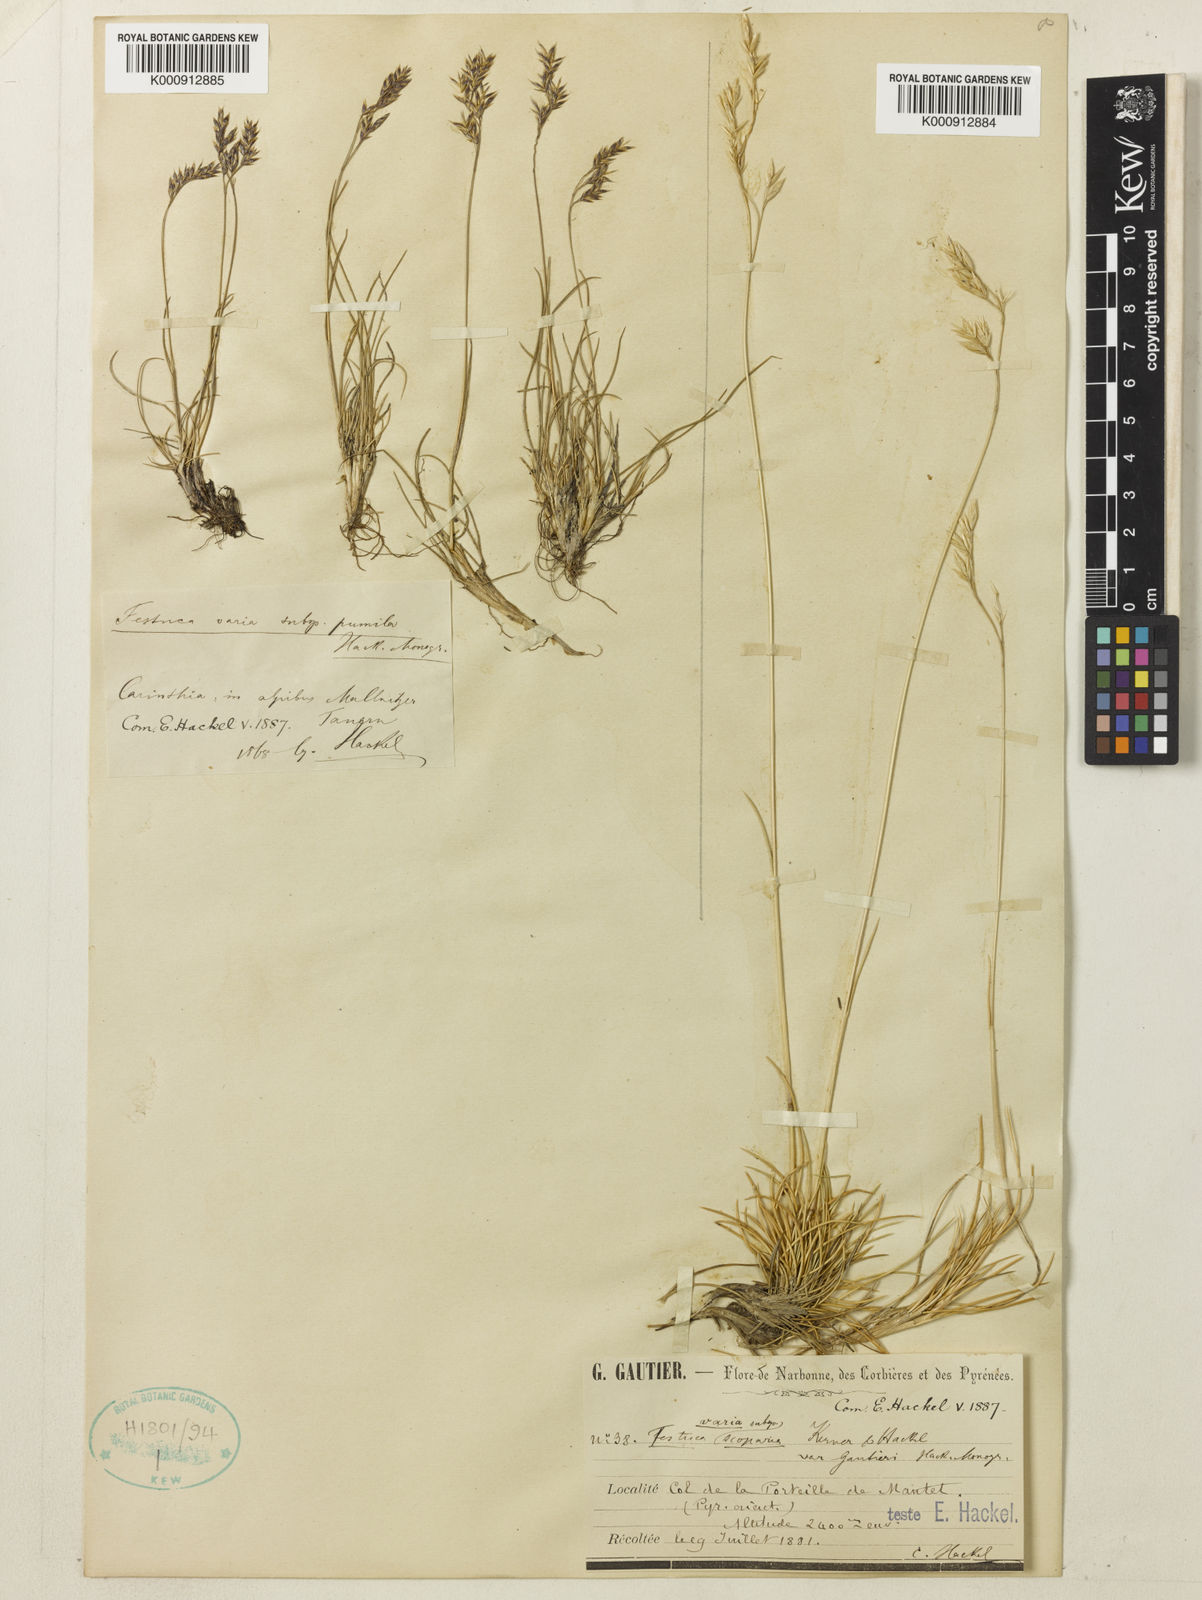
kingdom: Plantae
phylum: Tracheophyta
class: Liliopsida
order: Poales
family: Poaceae
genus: Festuca
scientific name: Festuca gautieri
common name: Spiky fescue
